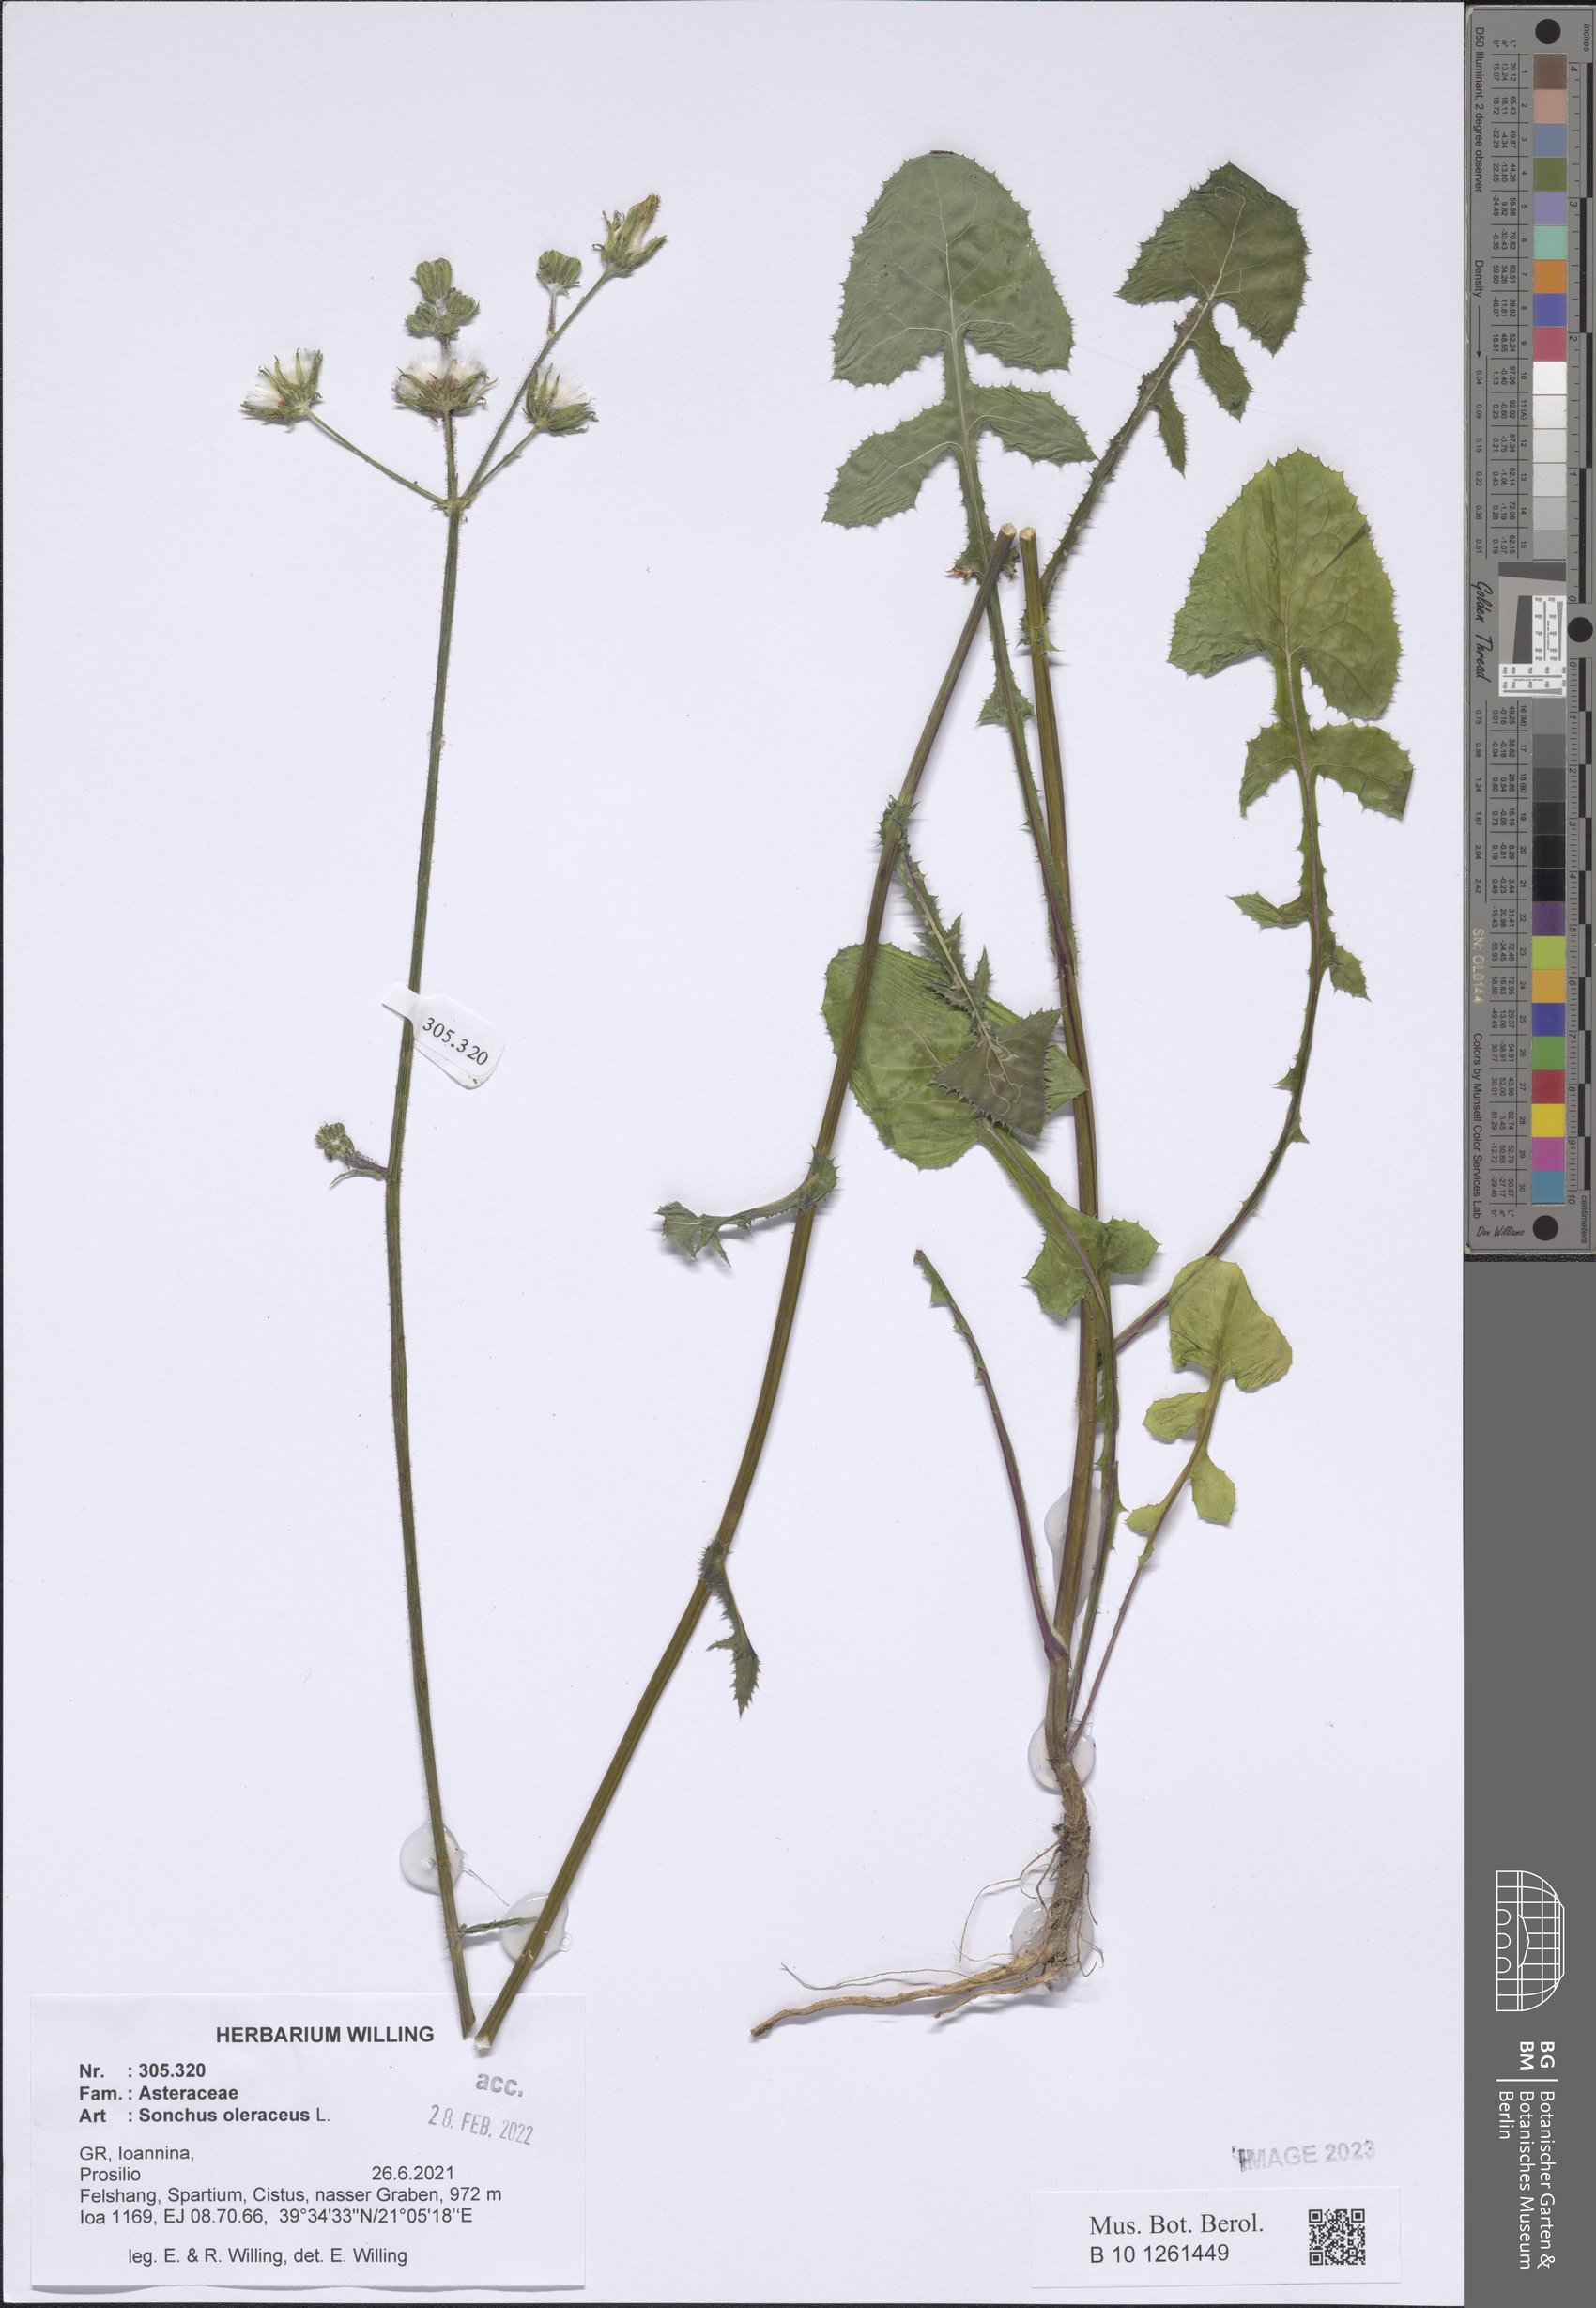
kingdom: Plantae
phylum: Tracheophyta
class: Magnoliopsida
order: Asterales
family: Asteraceae
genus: Sonchus
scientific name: Sonchus oleraceus
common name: Common sowthistle
